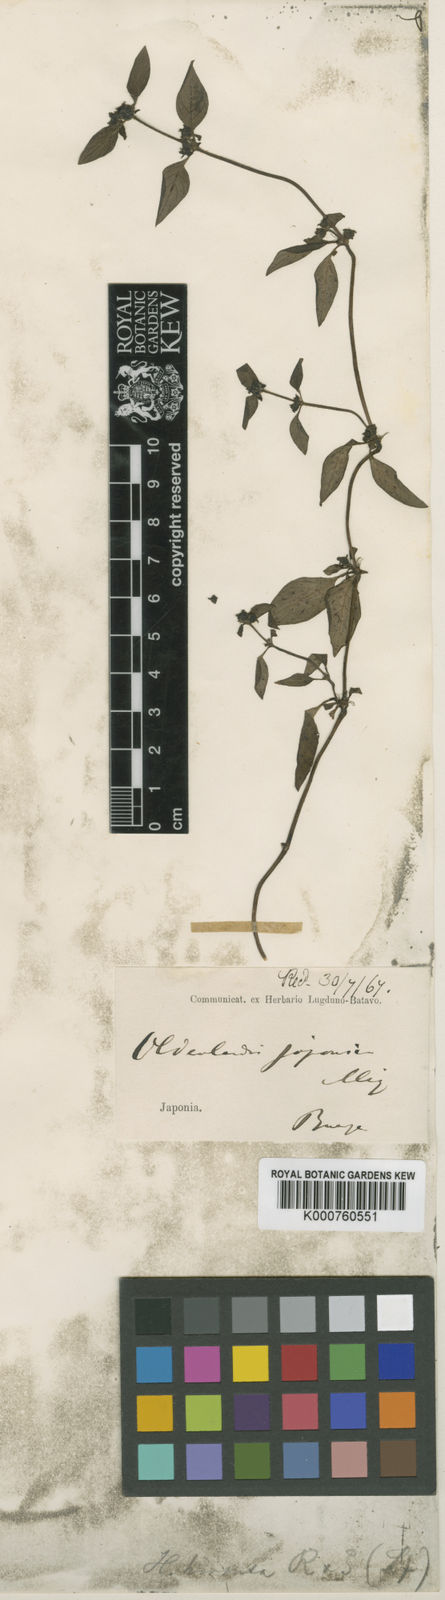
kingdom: Plantae
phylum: Tracheophyta
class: Magnoliopsida
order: Gentianales
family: Rubiaceae
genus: Dimetia
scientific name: Dimetia hedyotidea
